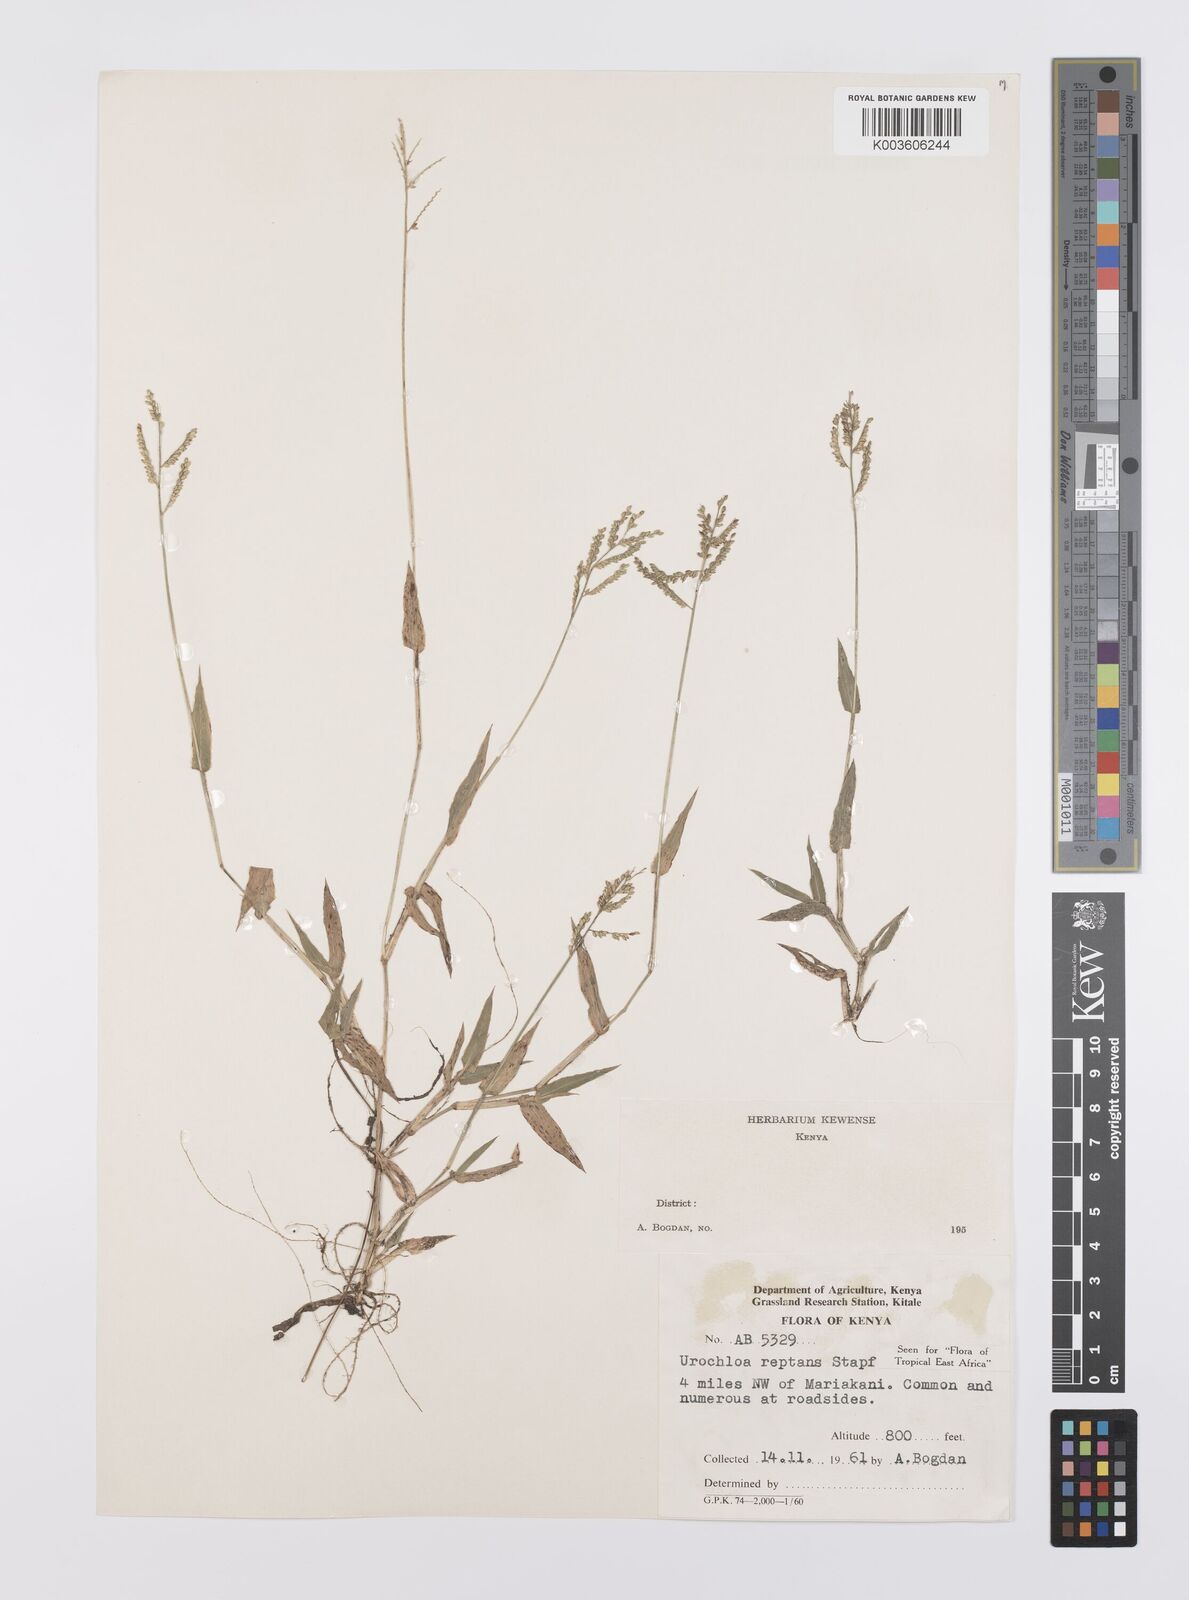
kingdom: Plantae
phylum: Tracheophyta
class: Liliopsida
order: Poales
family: Poaceae
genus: Urochloa
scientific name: Urochloa reptans
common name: Sprawling signalgrass
